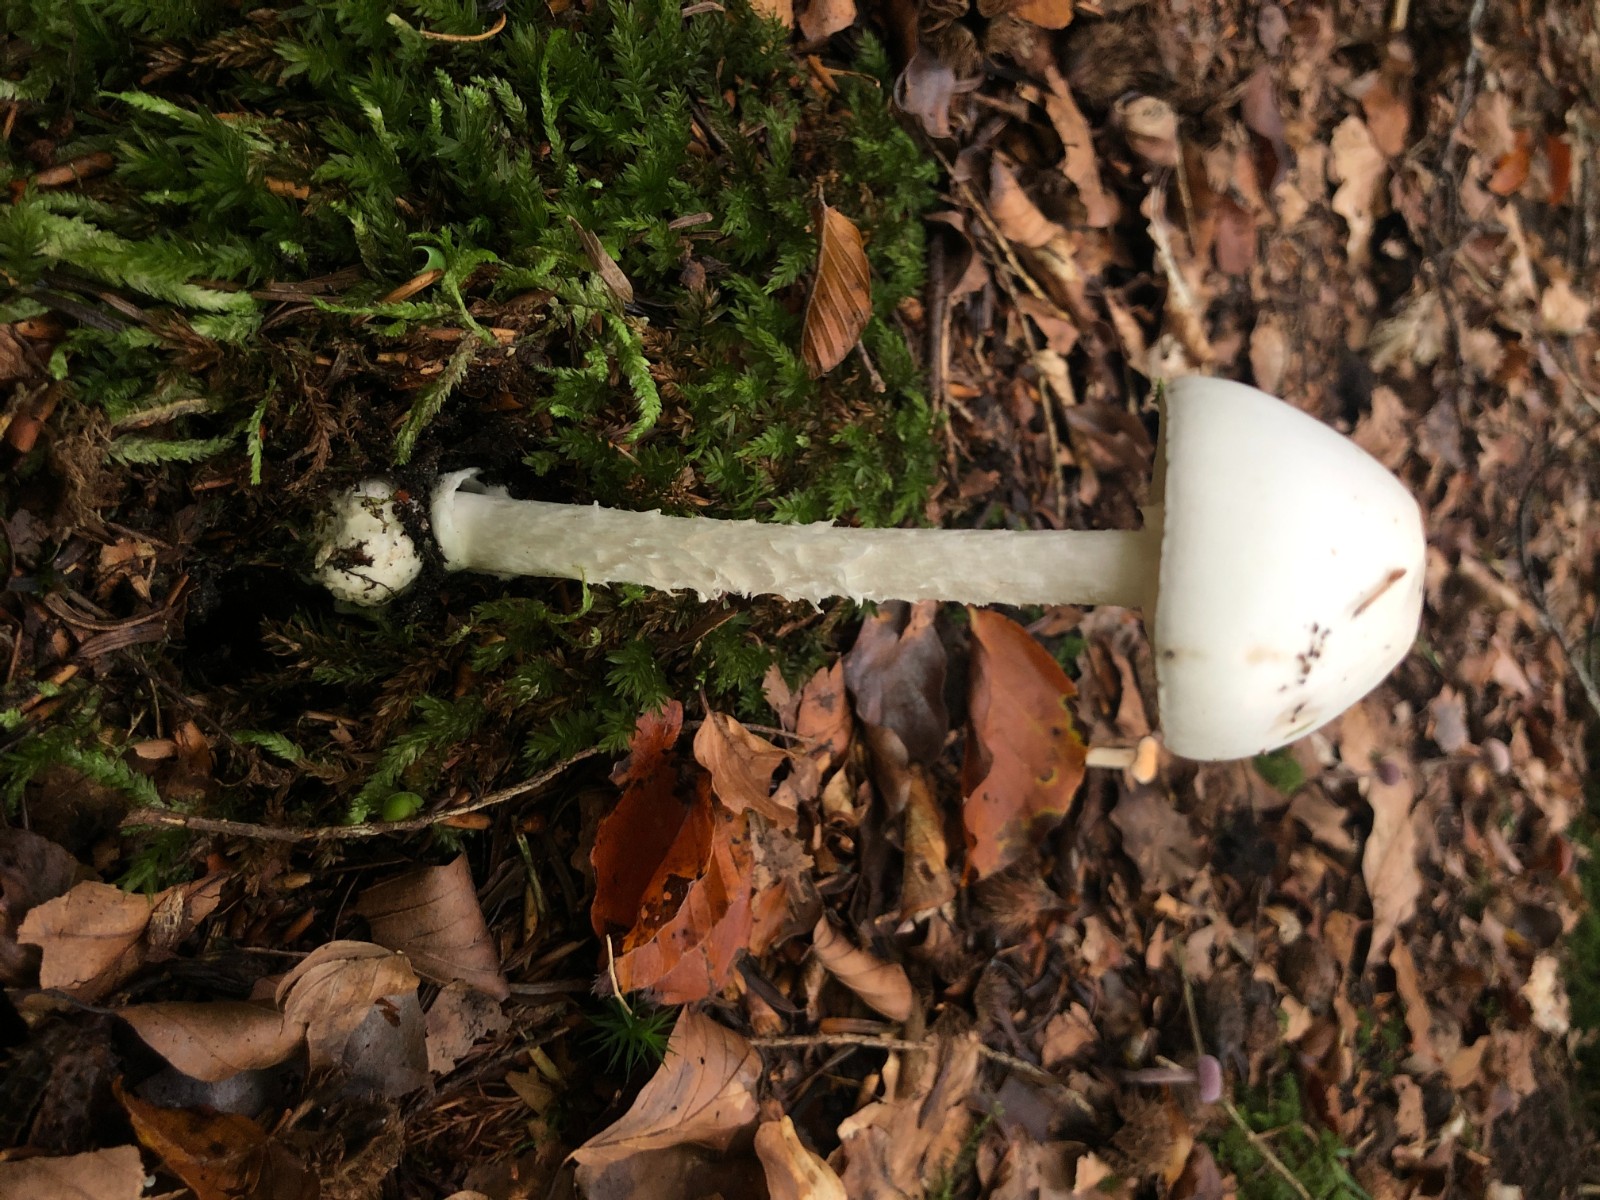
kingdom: Fungi
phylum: Basidiomycota
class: Agaricomycetes
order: Agaricales
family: Amanitaceae
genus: Amanita
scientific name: Amanita virosa
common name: snehvid fluesvamp
